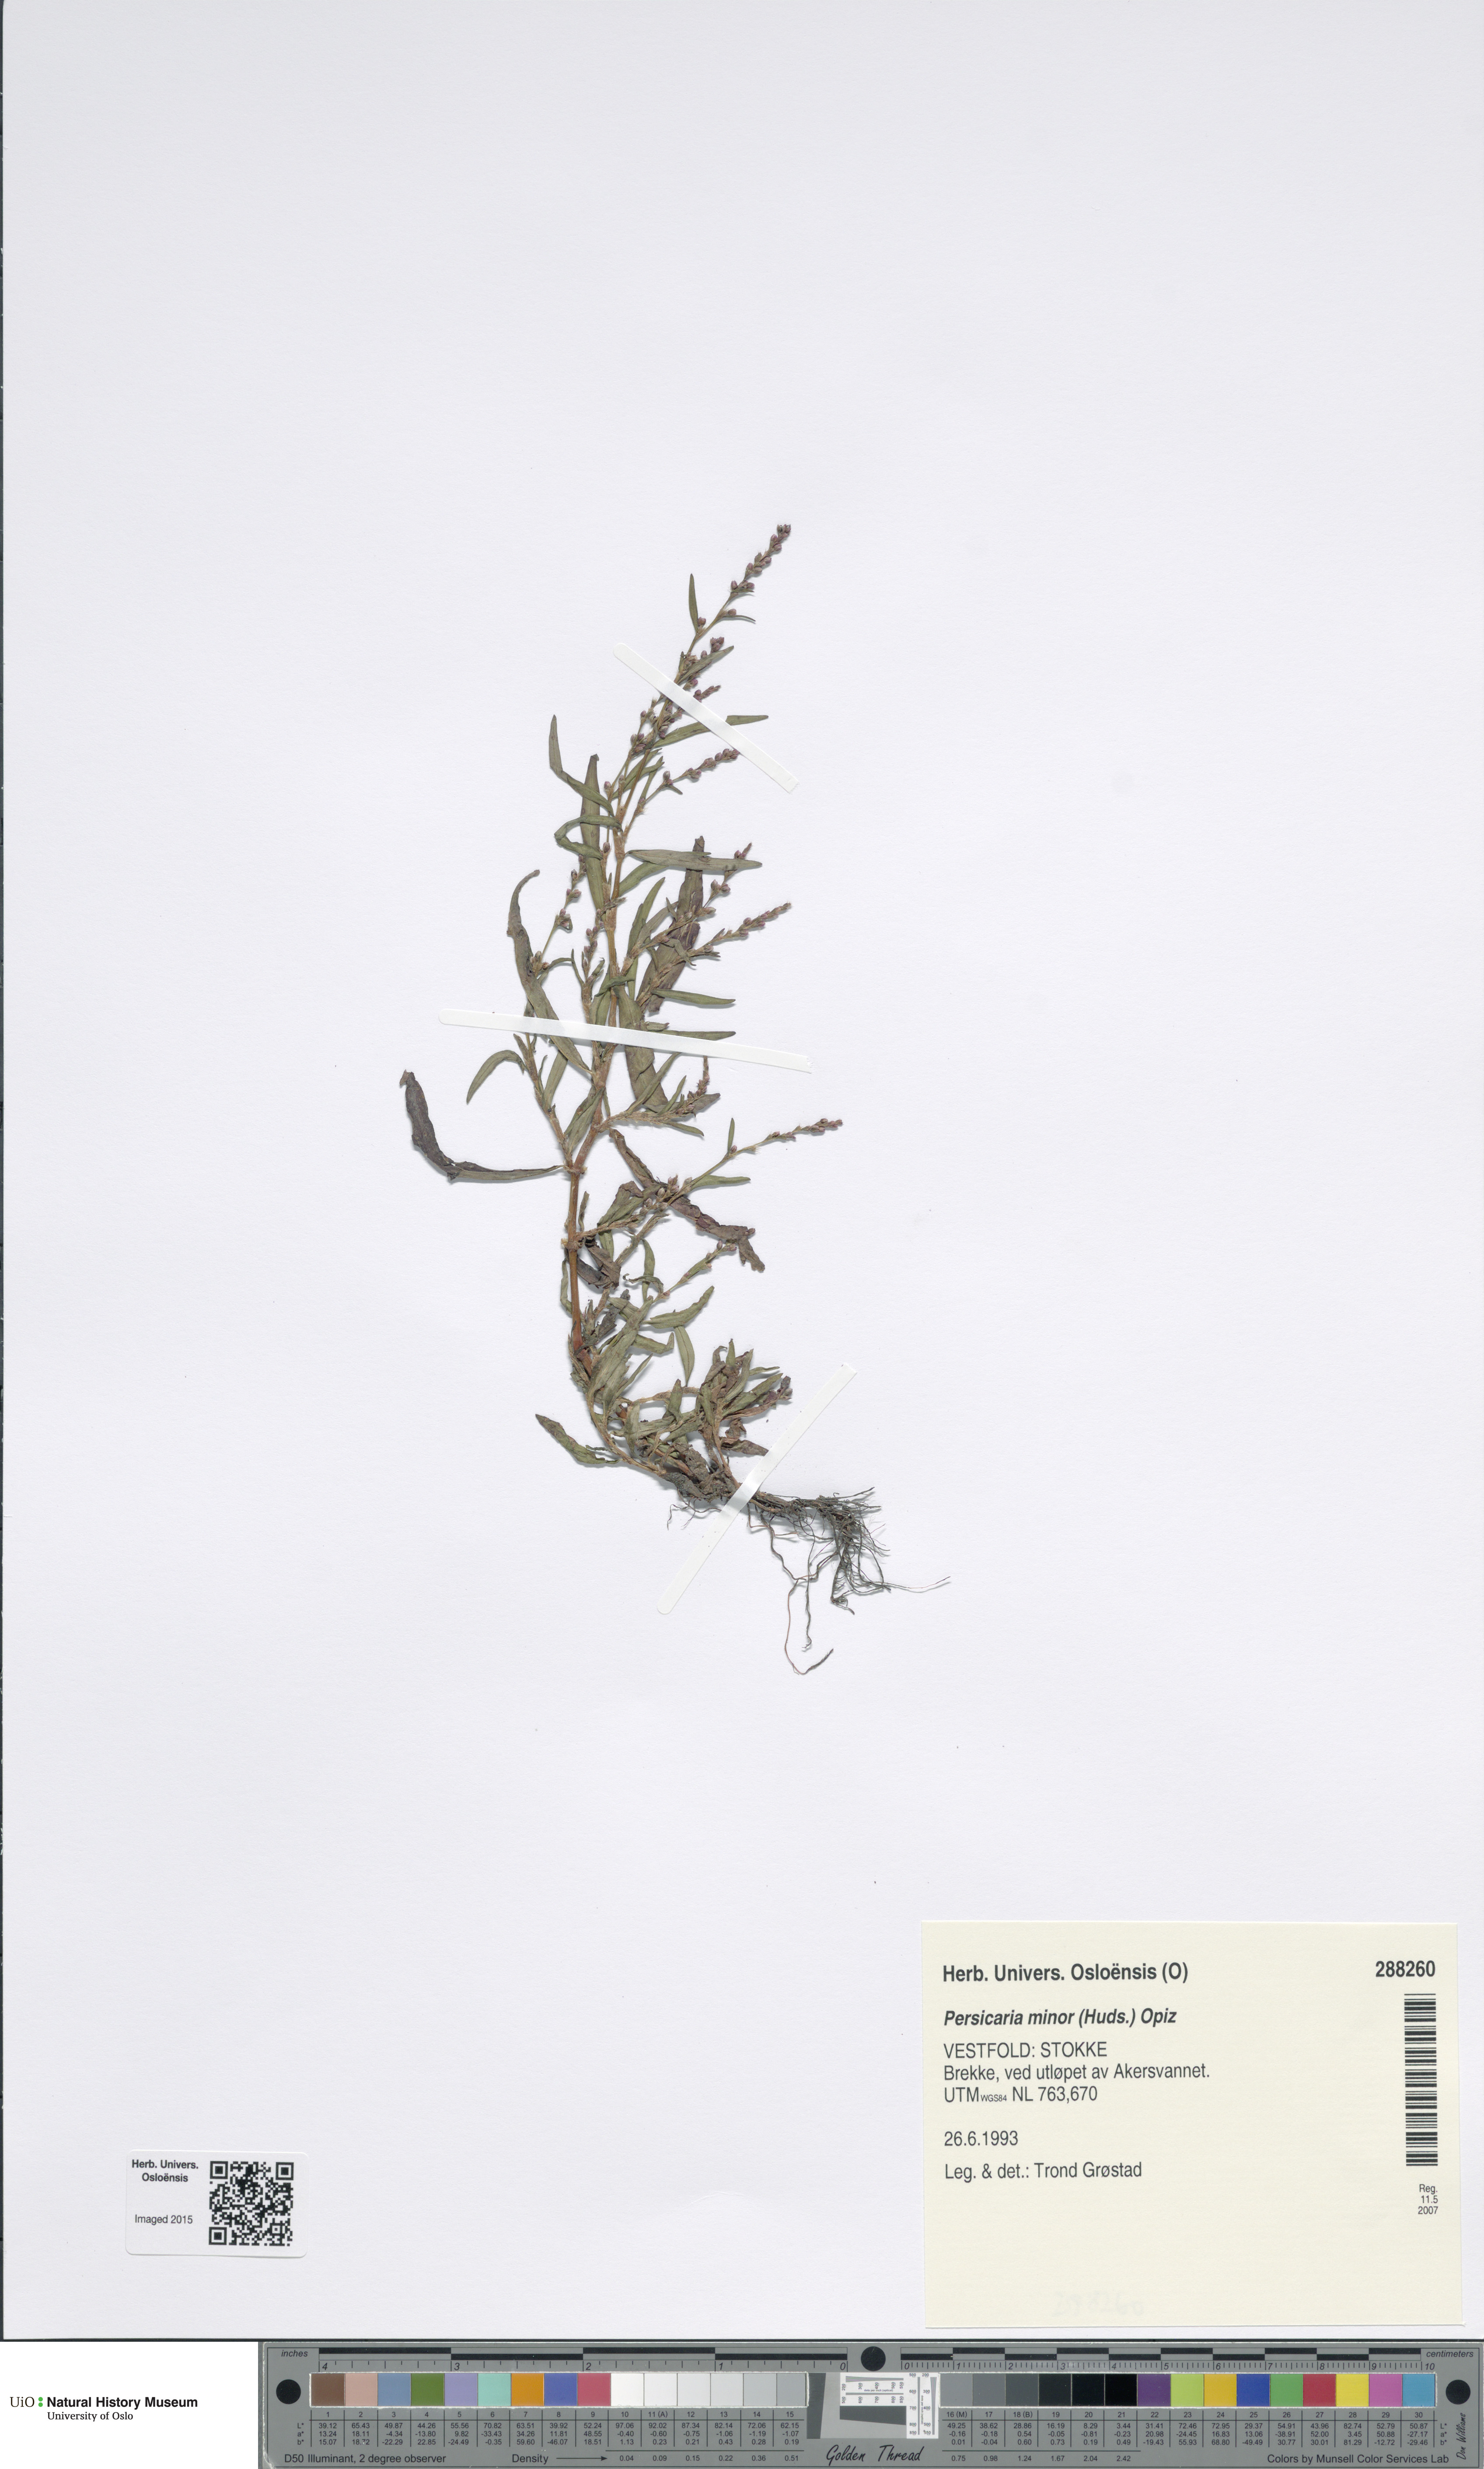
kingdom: Plantae
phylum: Tracheophyta
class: Magnoliopsida
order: Caryophyllales
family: Polygonaceae
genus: Persicaria
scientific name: Persicaria minor
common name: Small water-pepper
